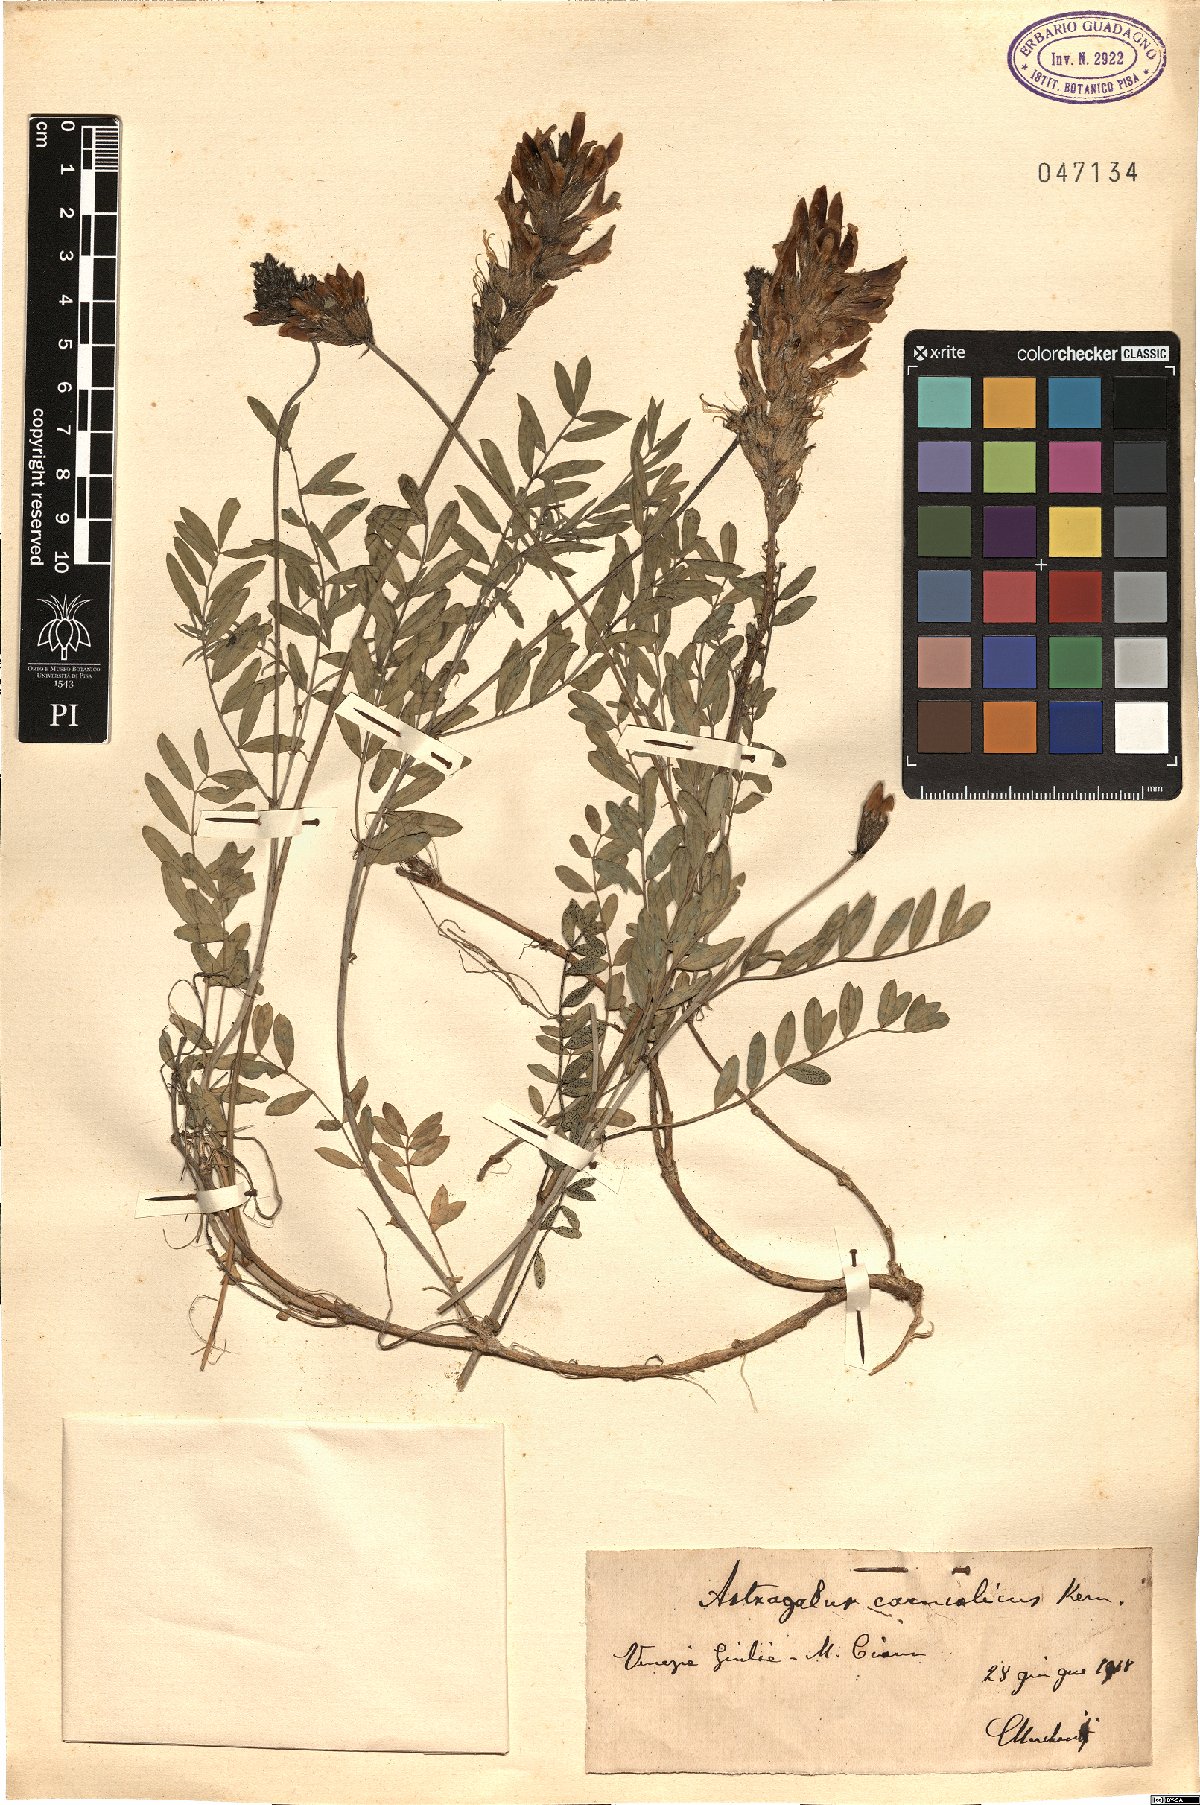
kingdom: Plantae
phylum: Tracheophyta
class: Magnoliopsida
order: Fabales
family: Fabaceae
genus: Astragalus
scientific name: Astragalus vesicarius
